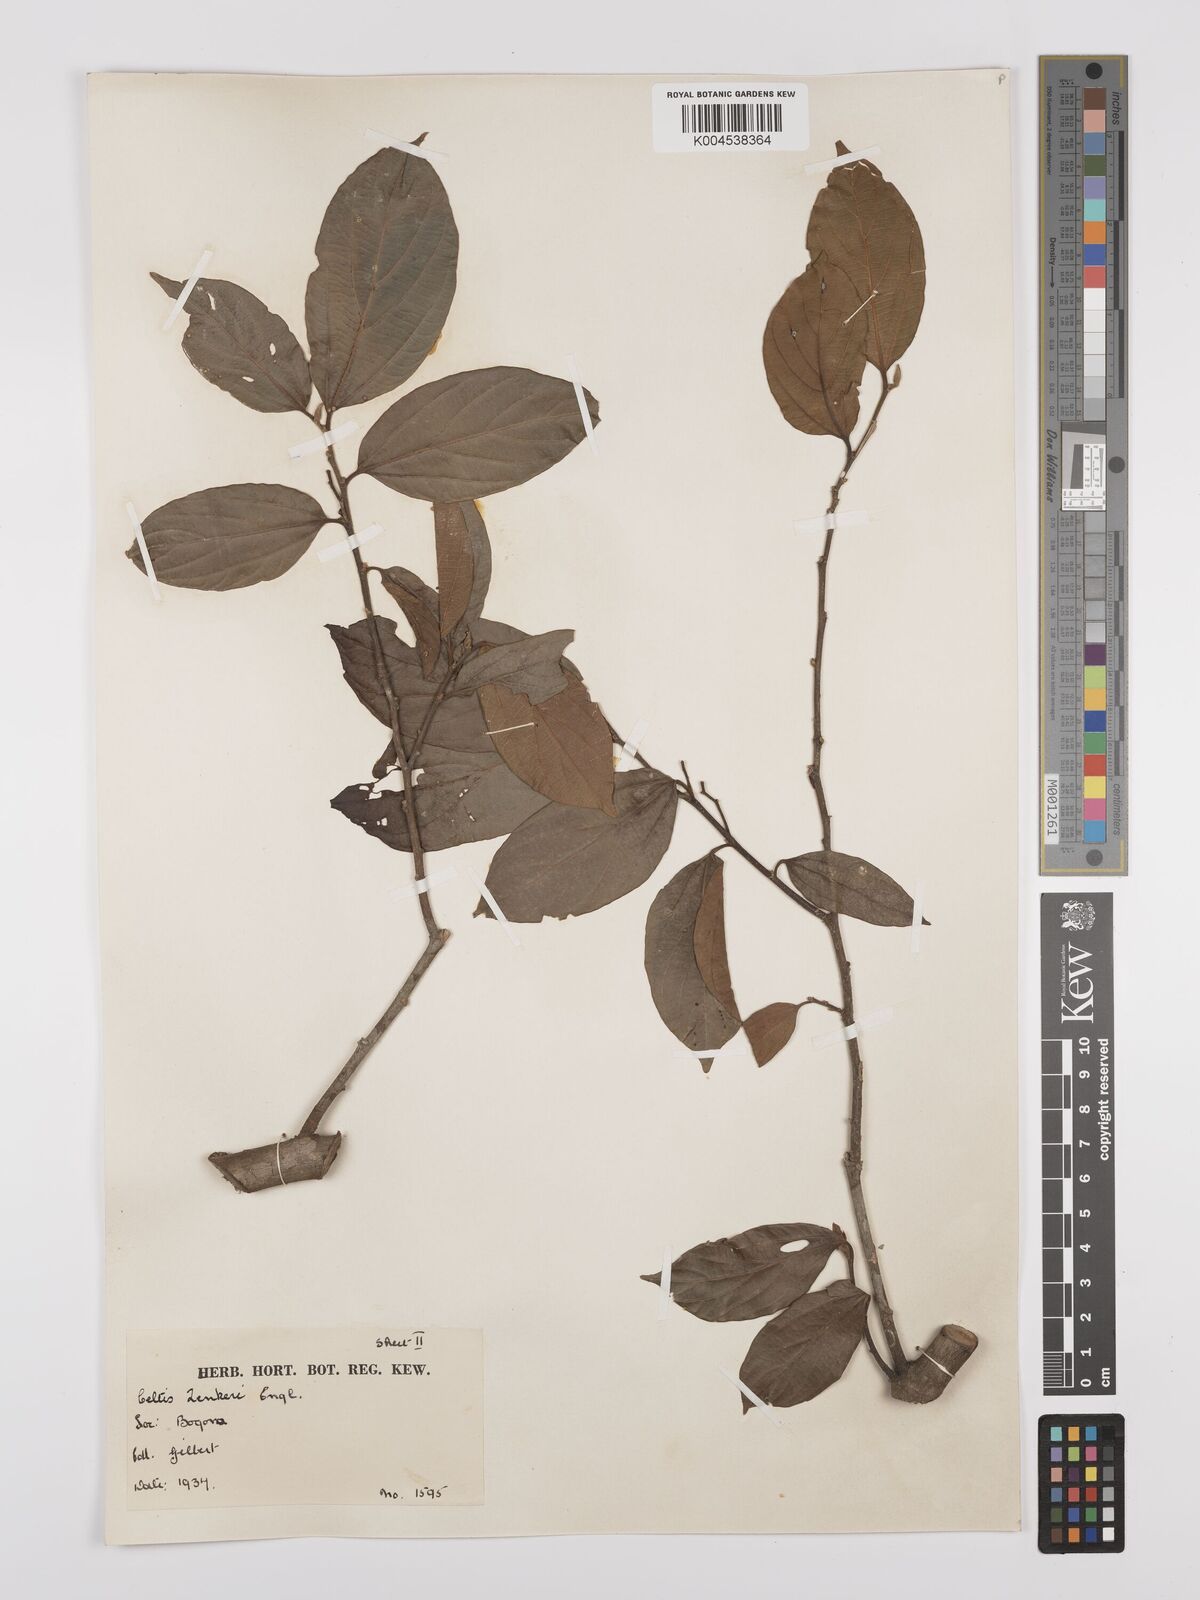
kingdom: Plantae
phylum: Tracheophyta
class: Magnoliopsida
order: Rosales
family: Cannabaceae
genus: Celtis
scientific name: Celtis zenkeri
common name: African celtis
